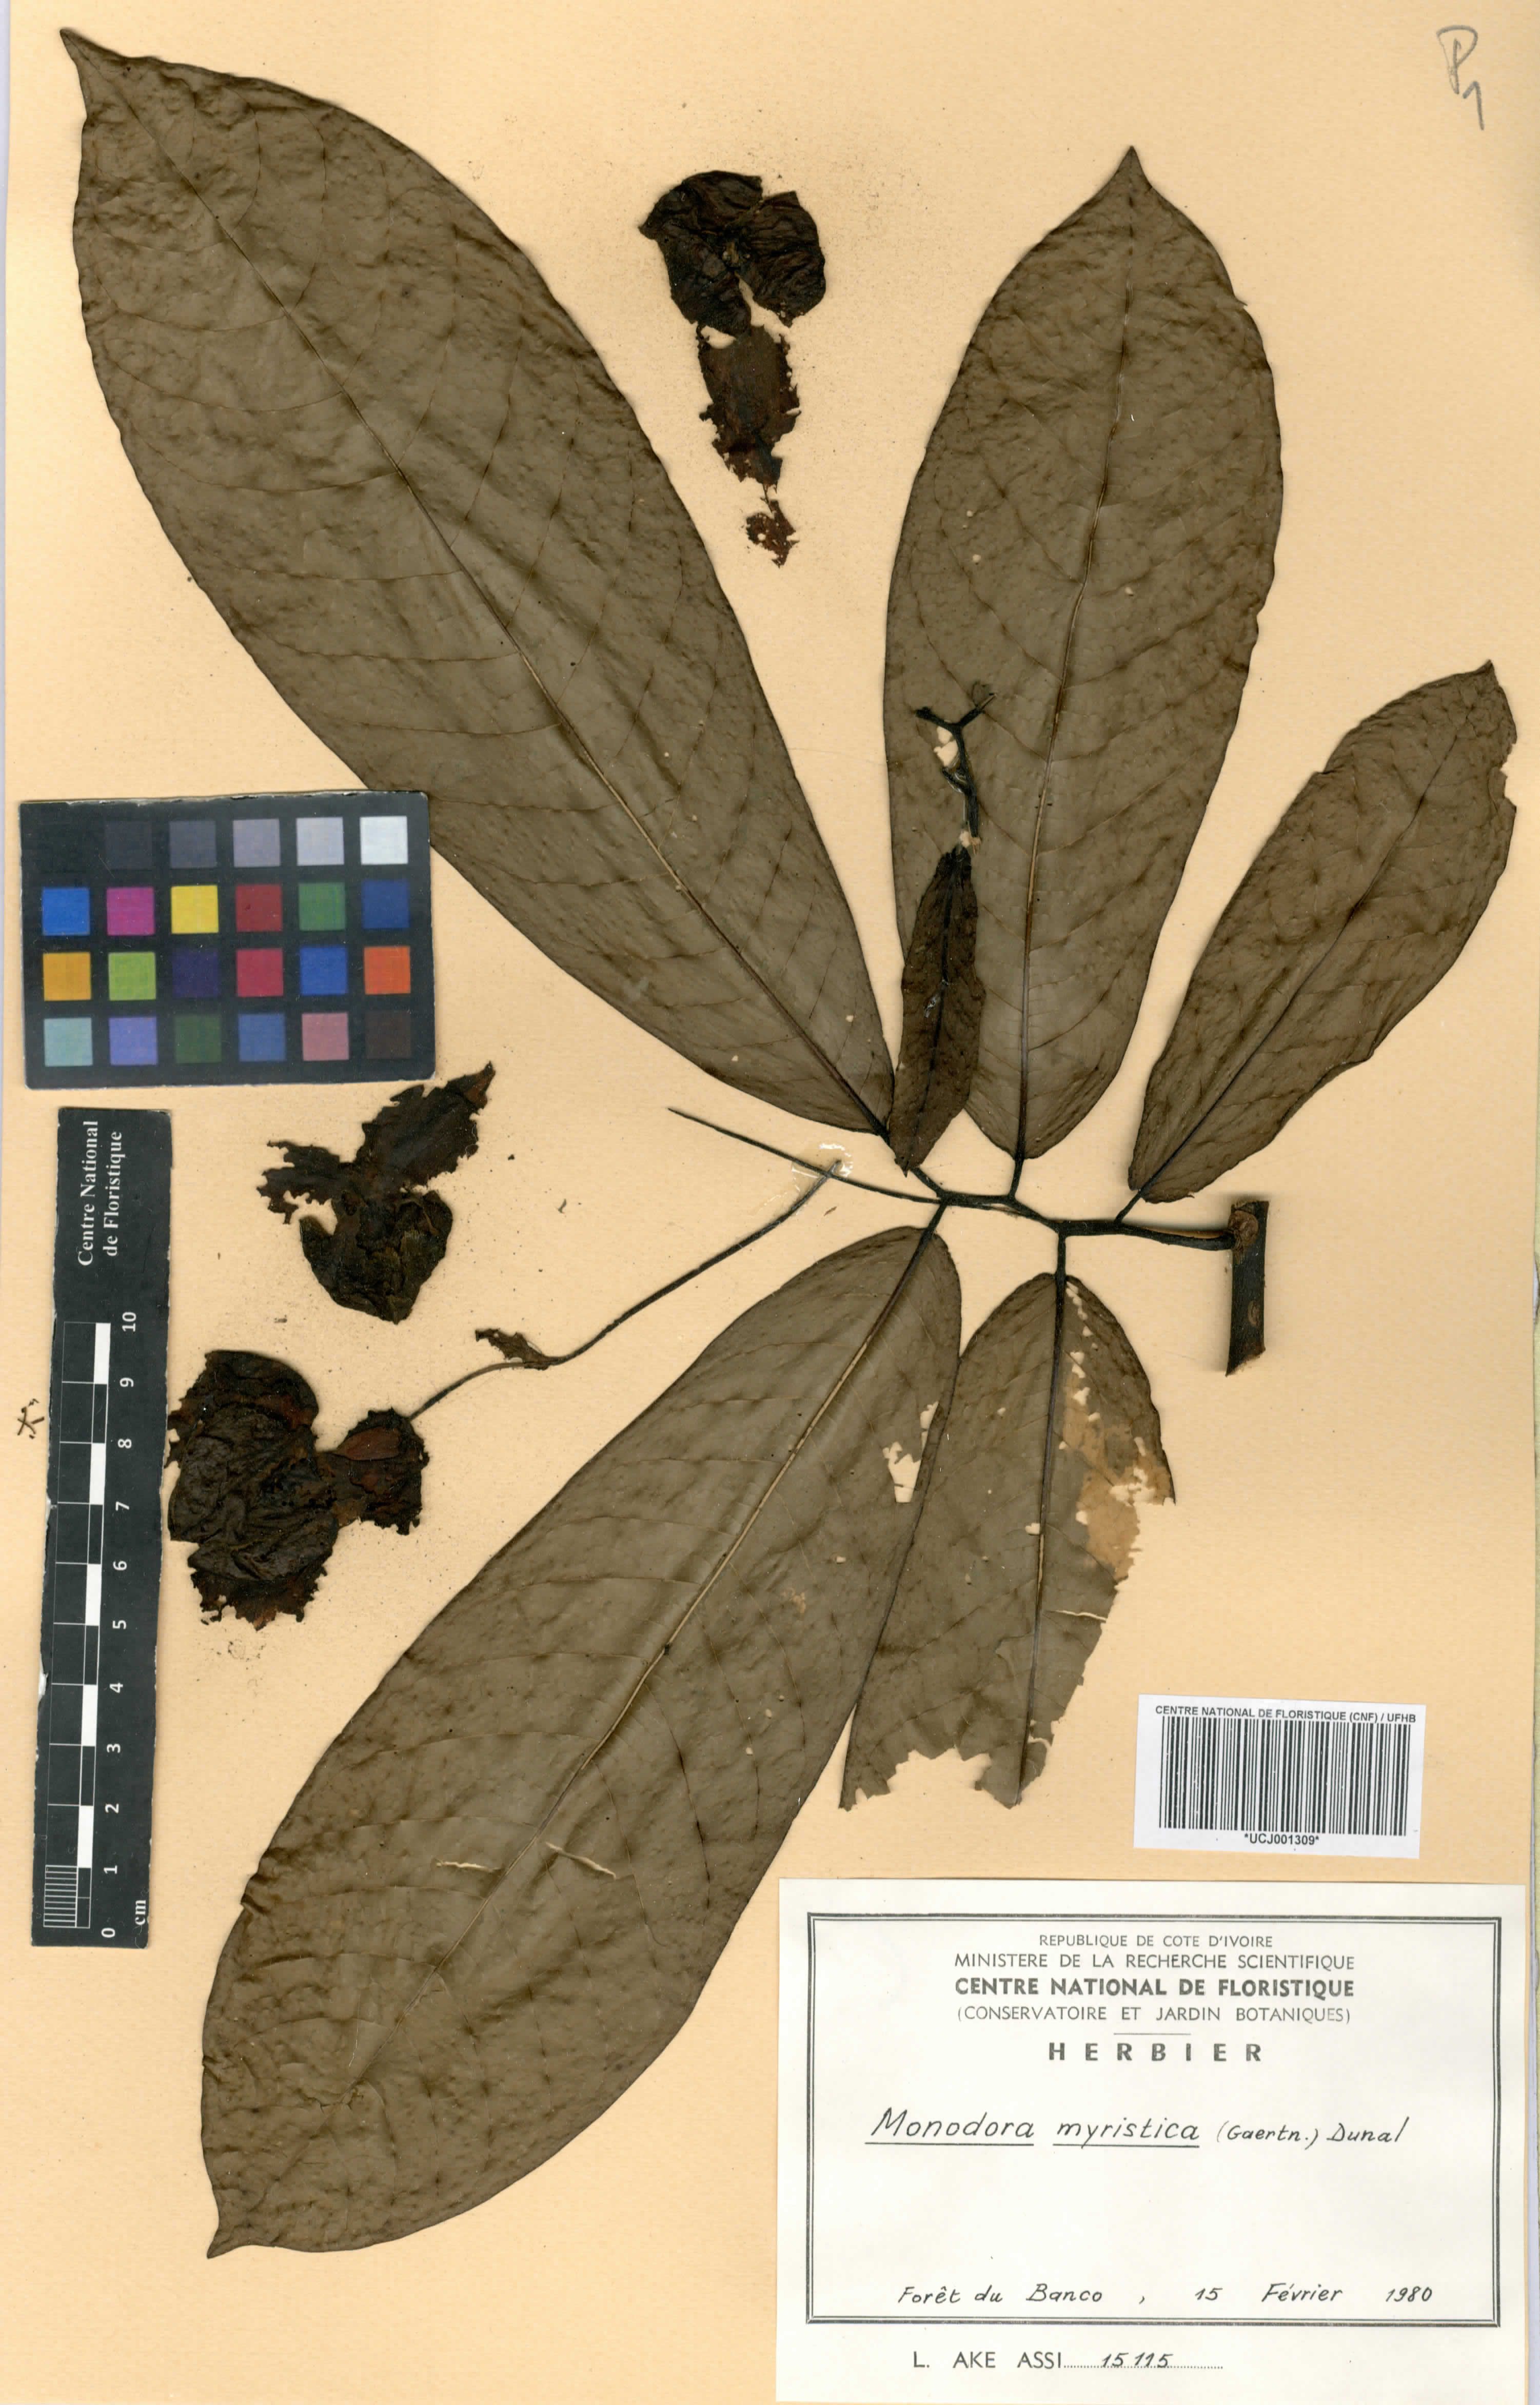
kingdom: Plantae
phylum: Tracheophyta
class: Magnoliopsida
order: Magnoliales
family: Annonaceae
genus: Monodora
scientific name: Monodora myristica
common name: African nutmeg
